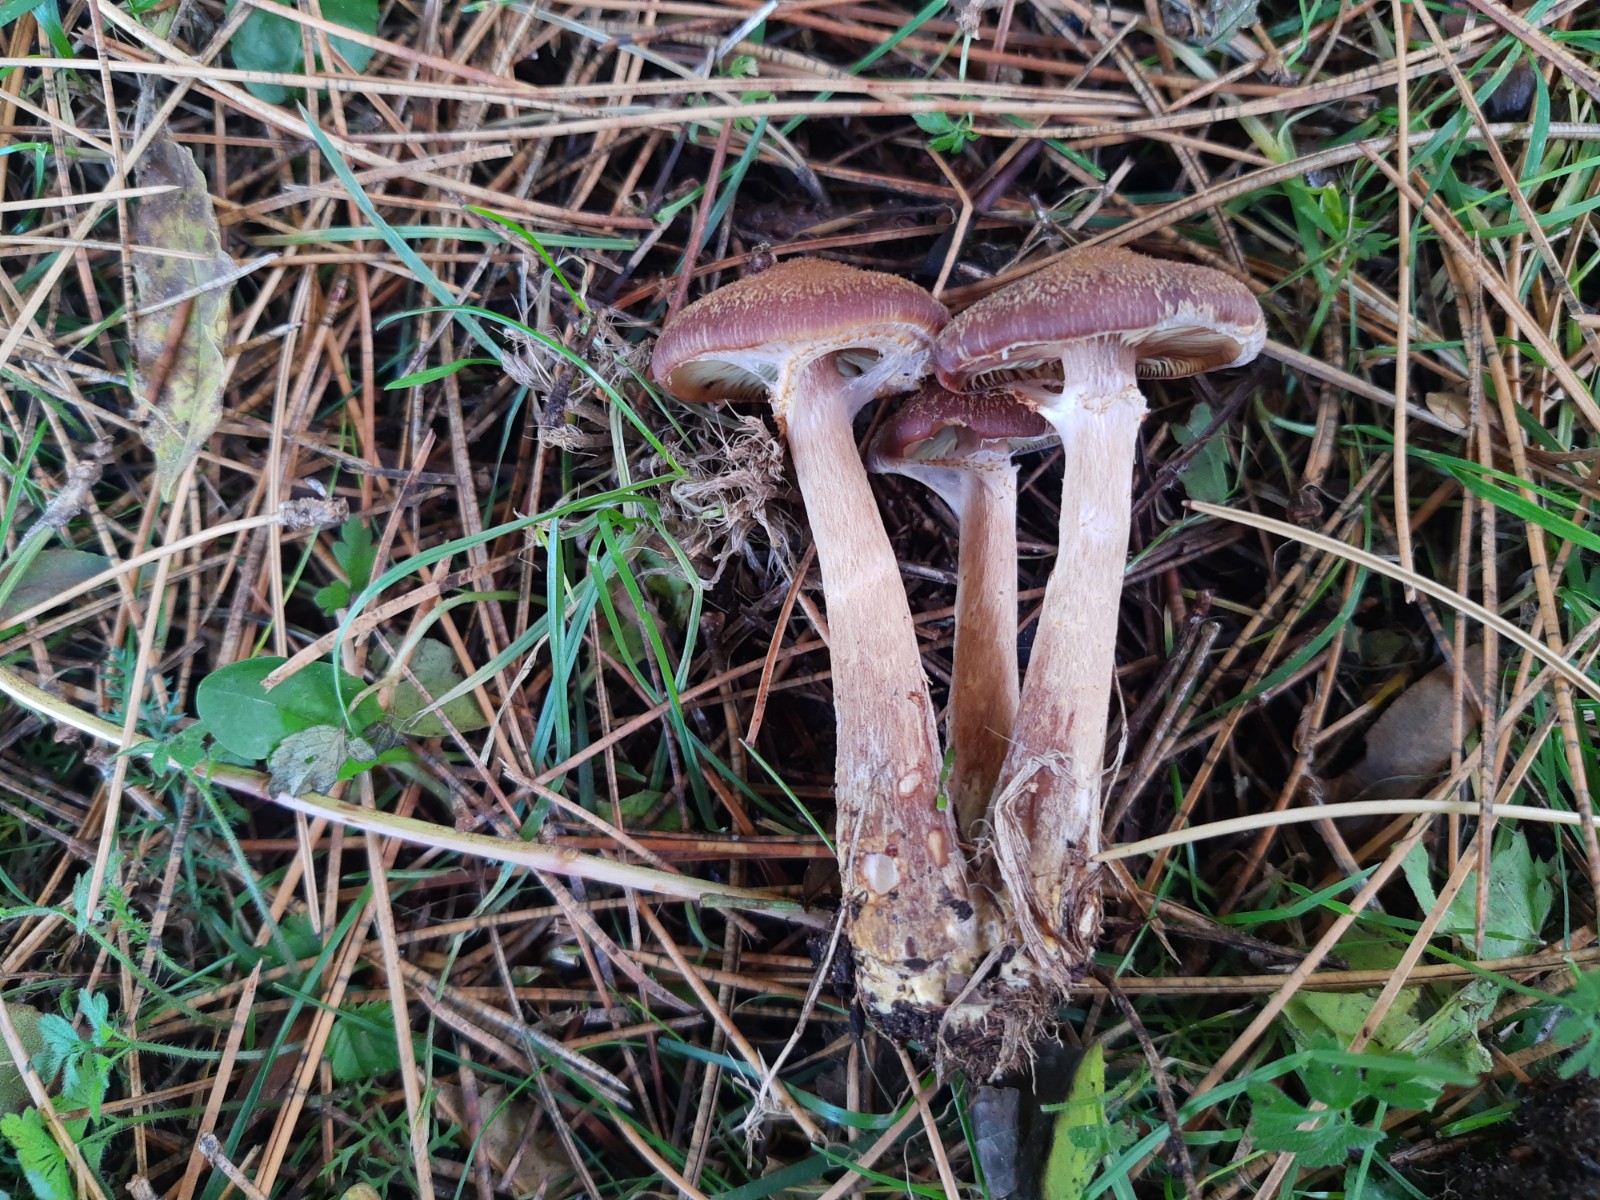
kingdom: Fungi
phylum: Basidiomycota
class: Agaricomycetes
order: Agaricales
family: Physalacriaceae
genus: Armillaria
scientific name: Armillaria lutea
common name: køllestokket honningsvamp
